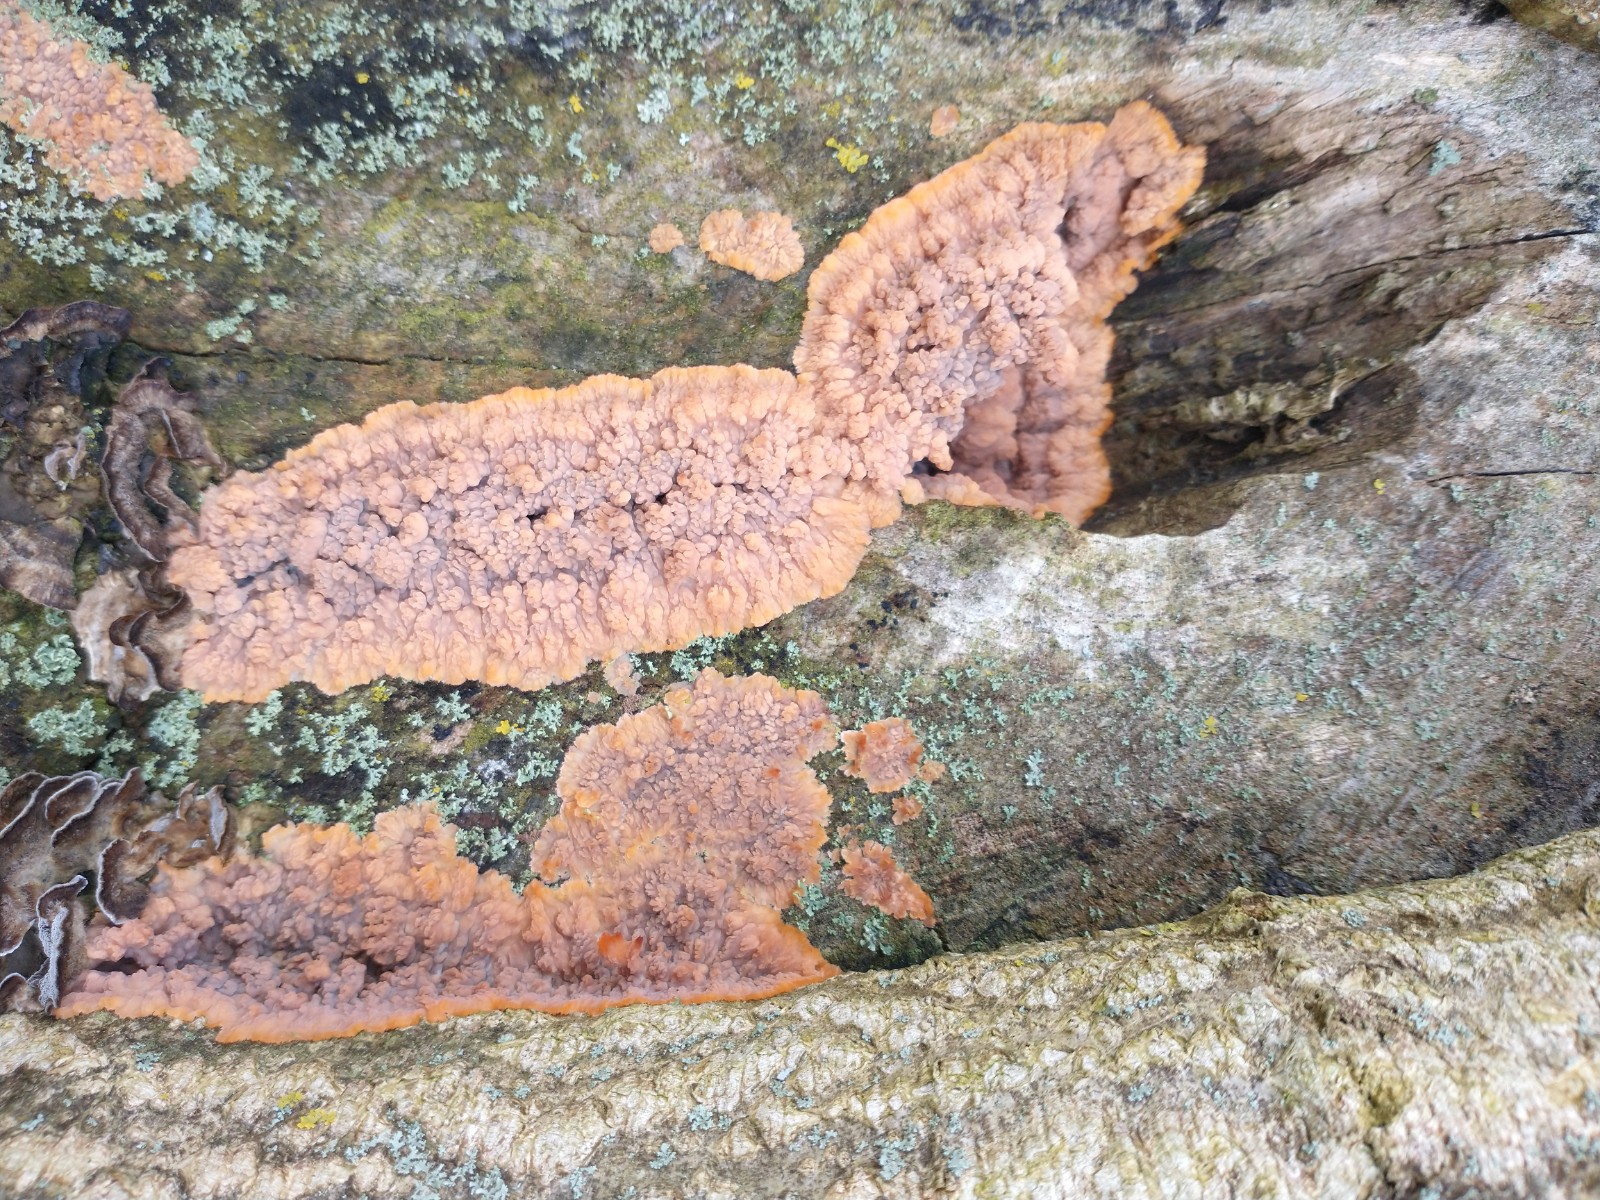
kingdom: Fungi
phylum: Basidiomycota
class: Agaricomycetes
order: Polyporales
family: Meruliaceae
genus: Phlebia
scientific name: Phlebia radiata
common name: stråle-åresvamp
